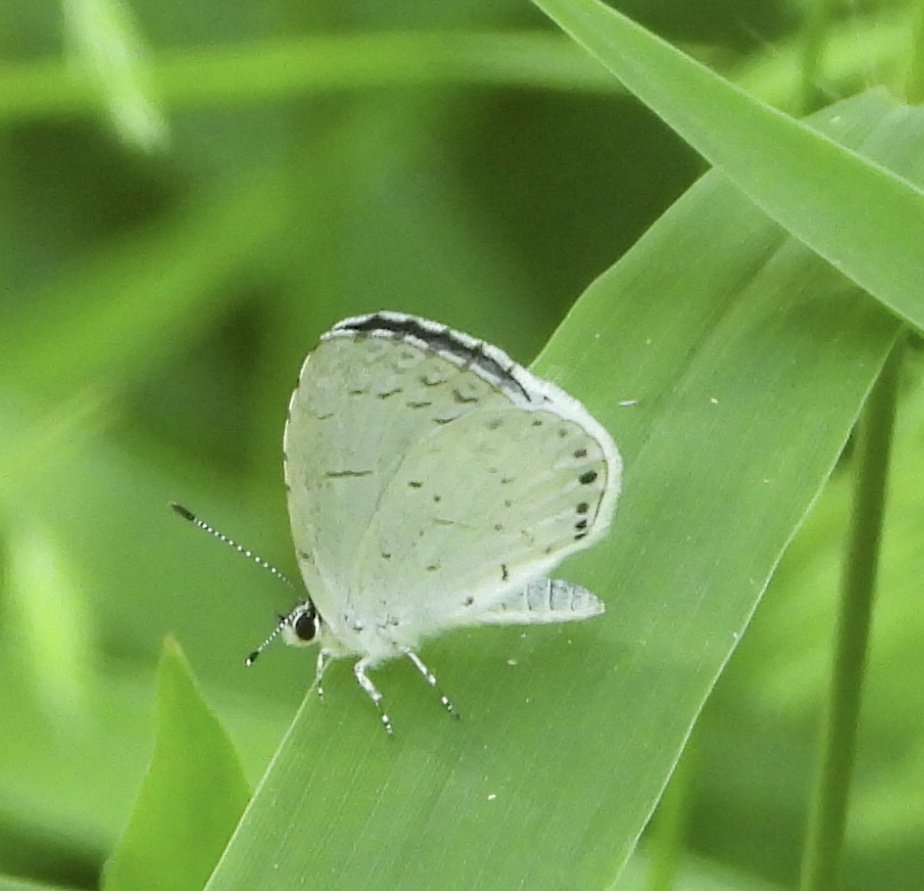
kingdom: Animalia
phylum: Arthropoda
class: Insecta
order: Lepidoptera
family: Lycaenidae
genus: Cyaniris
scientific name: Cyaniris neglecta
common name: Summer Azure
